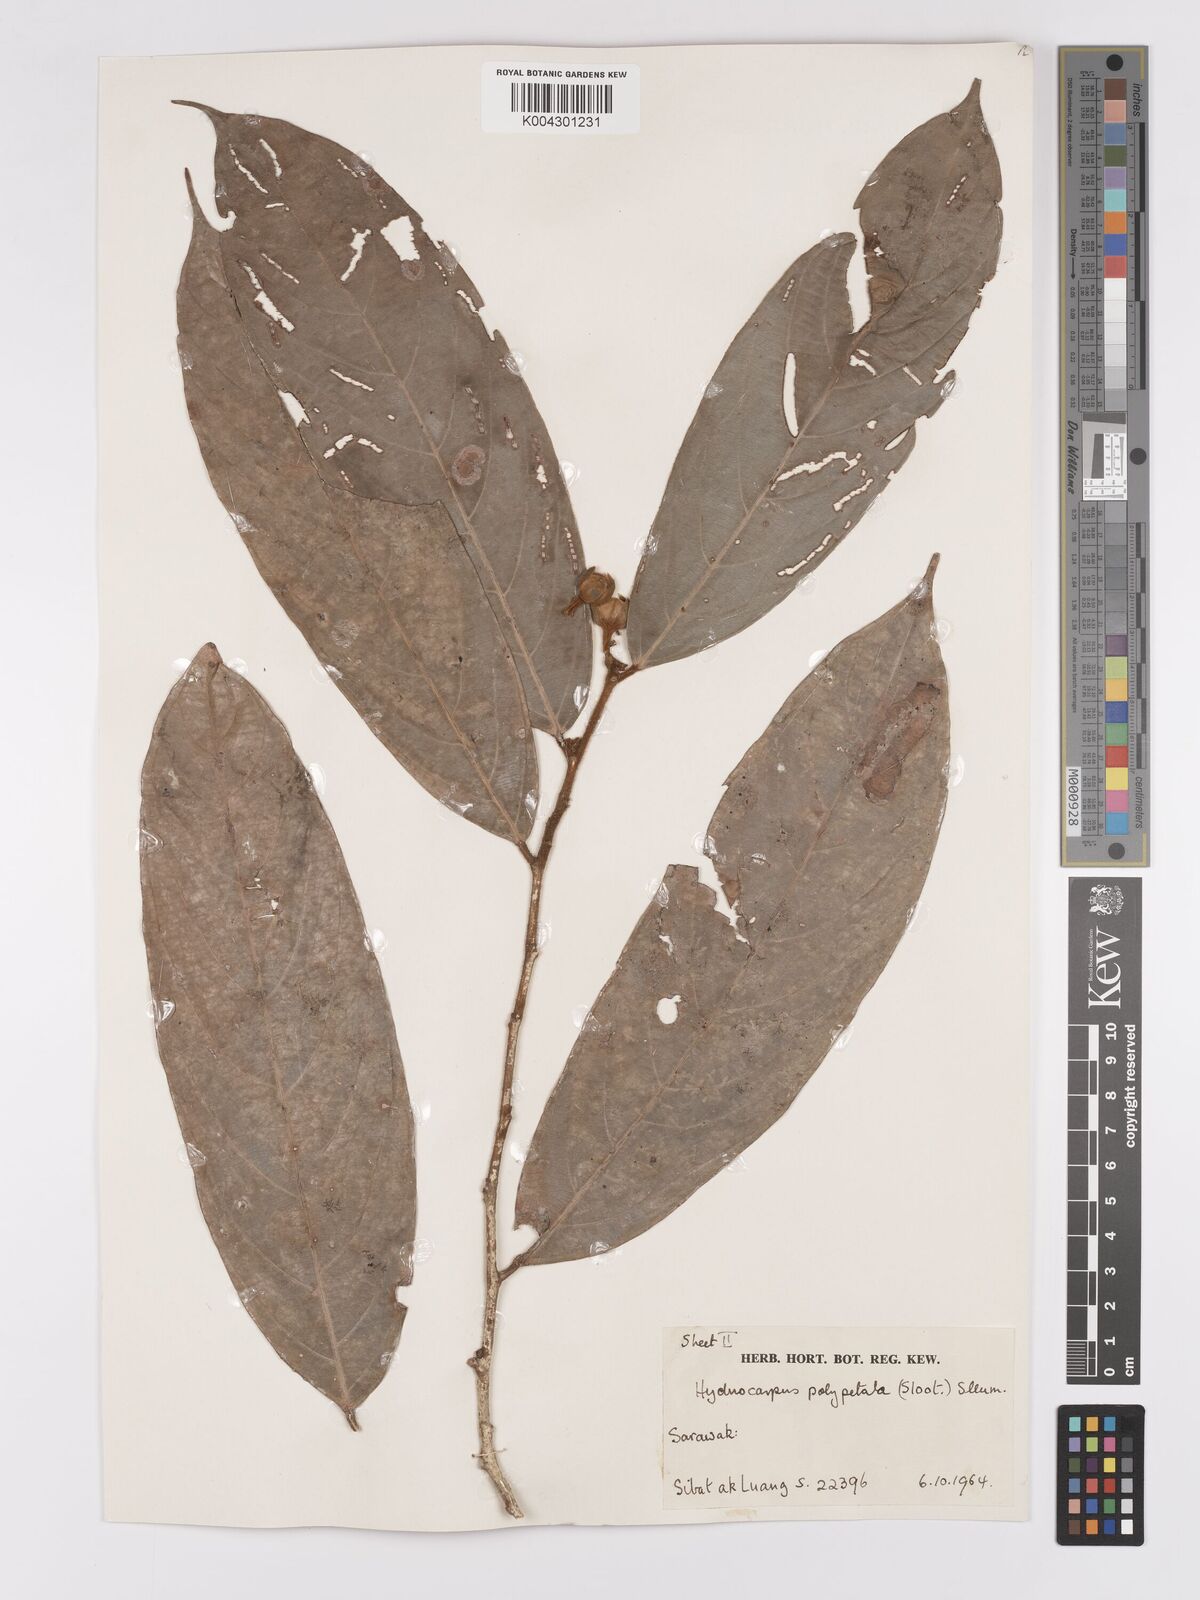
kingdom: Plantae
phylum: Tracheophyta
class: Magnoliopsida
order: Malpighiales
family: Achariaceae
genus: Hydnocarpus
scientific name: Hydnocarpus polypetalus
